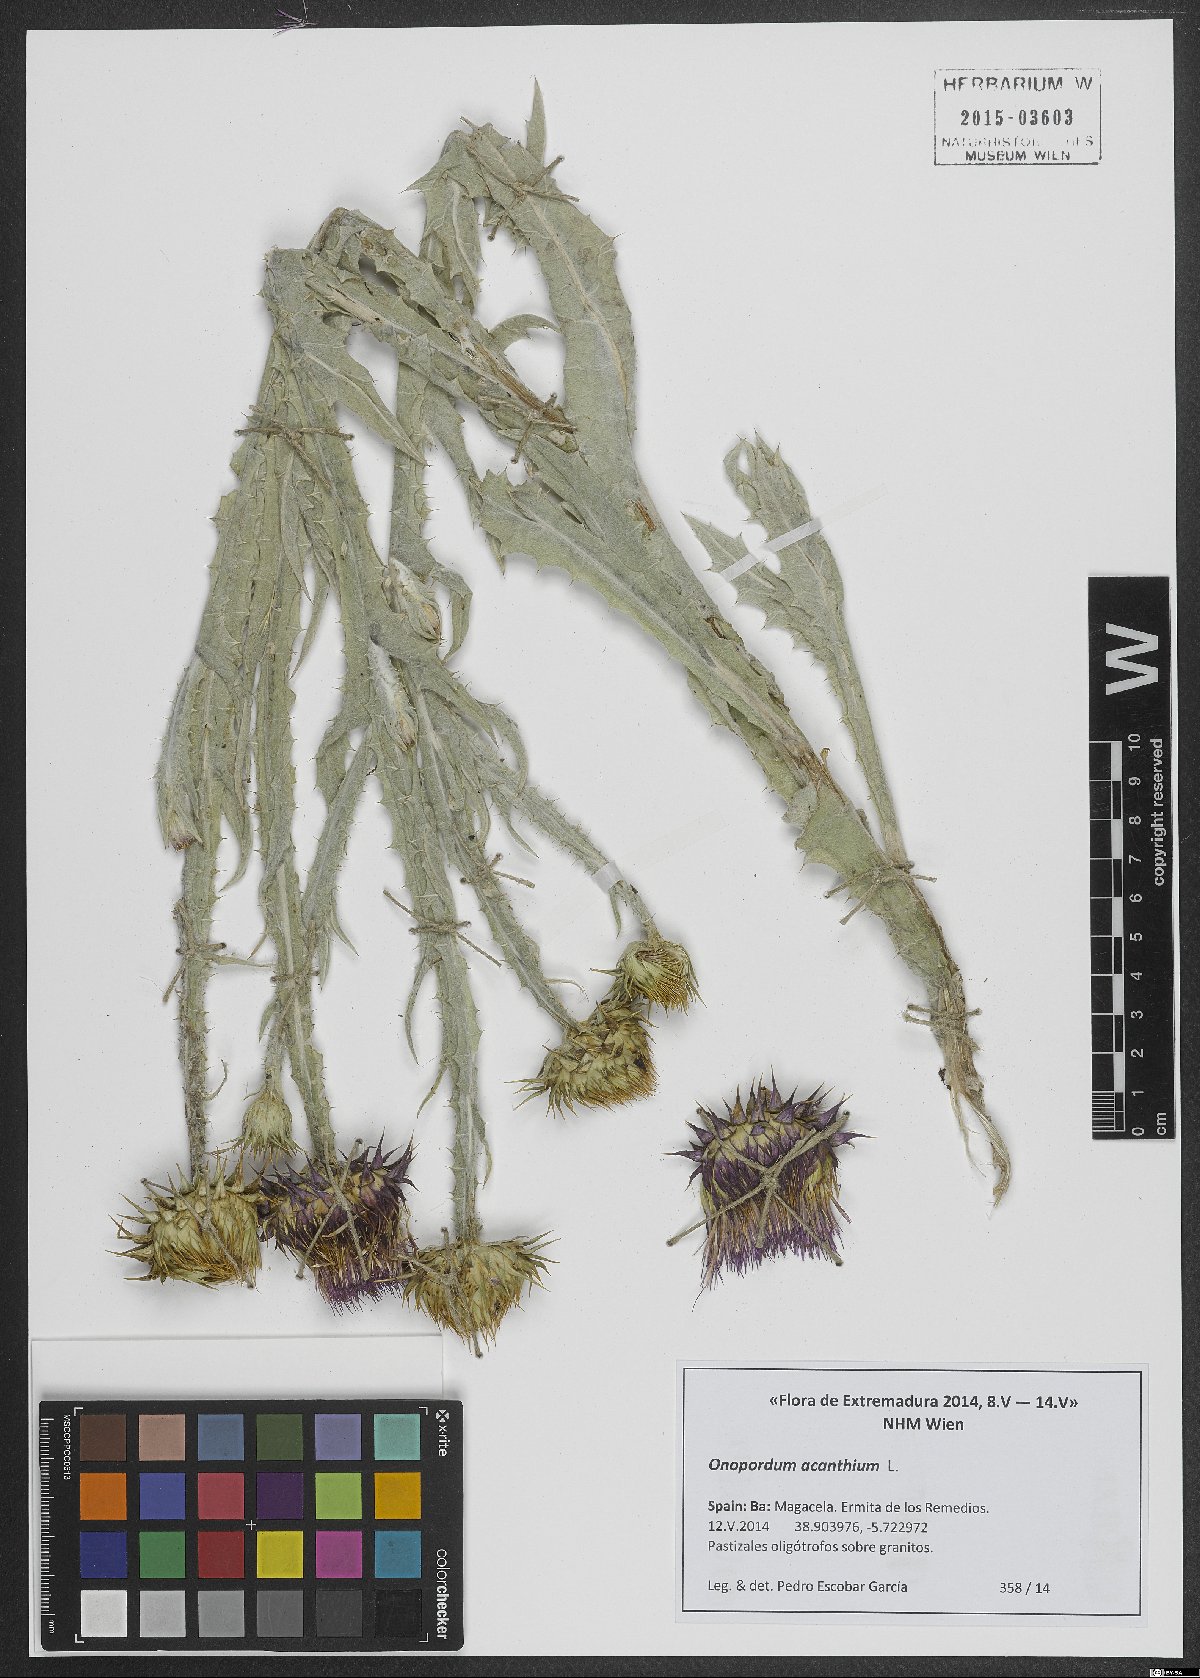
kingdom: Plantae
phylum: Tracheophyta
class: Magnoliopsida
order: Asterales
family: Asteraceae
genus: Onopordum
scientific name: Onopordum acanthium
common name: Scotch thistle
